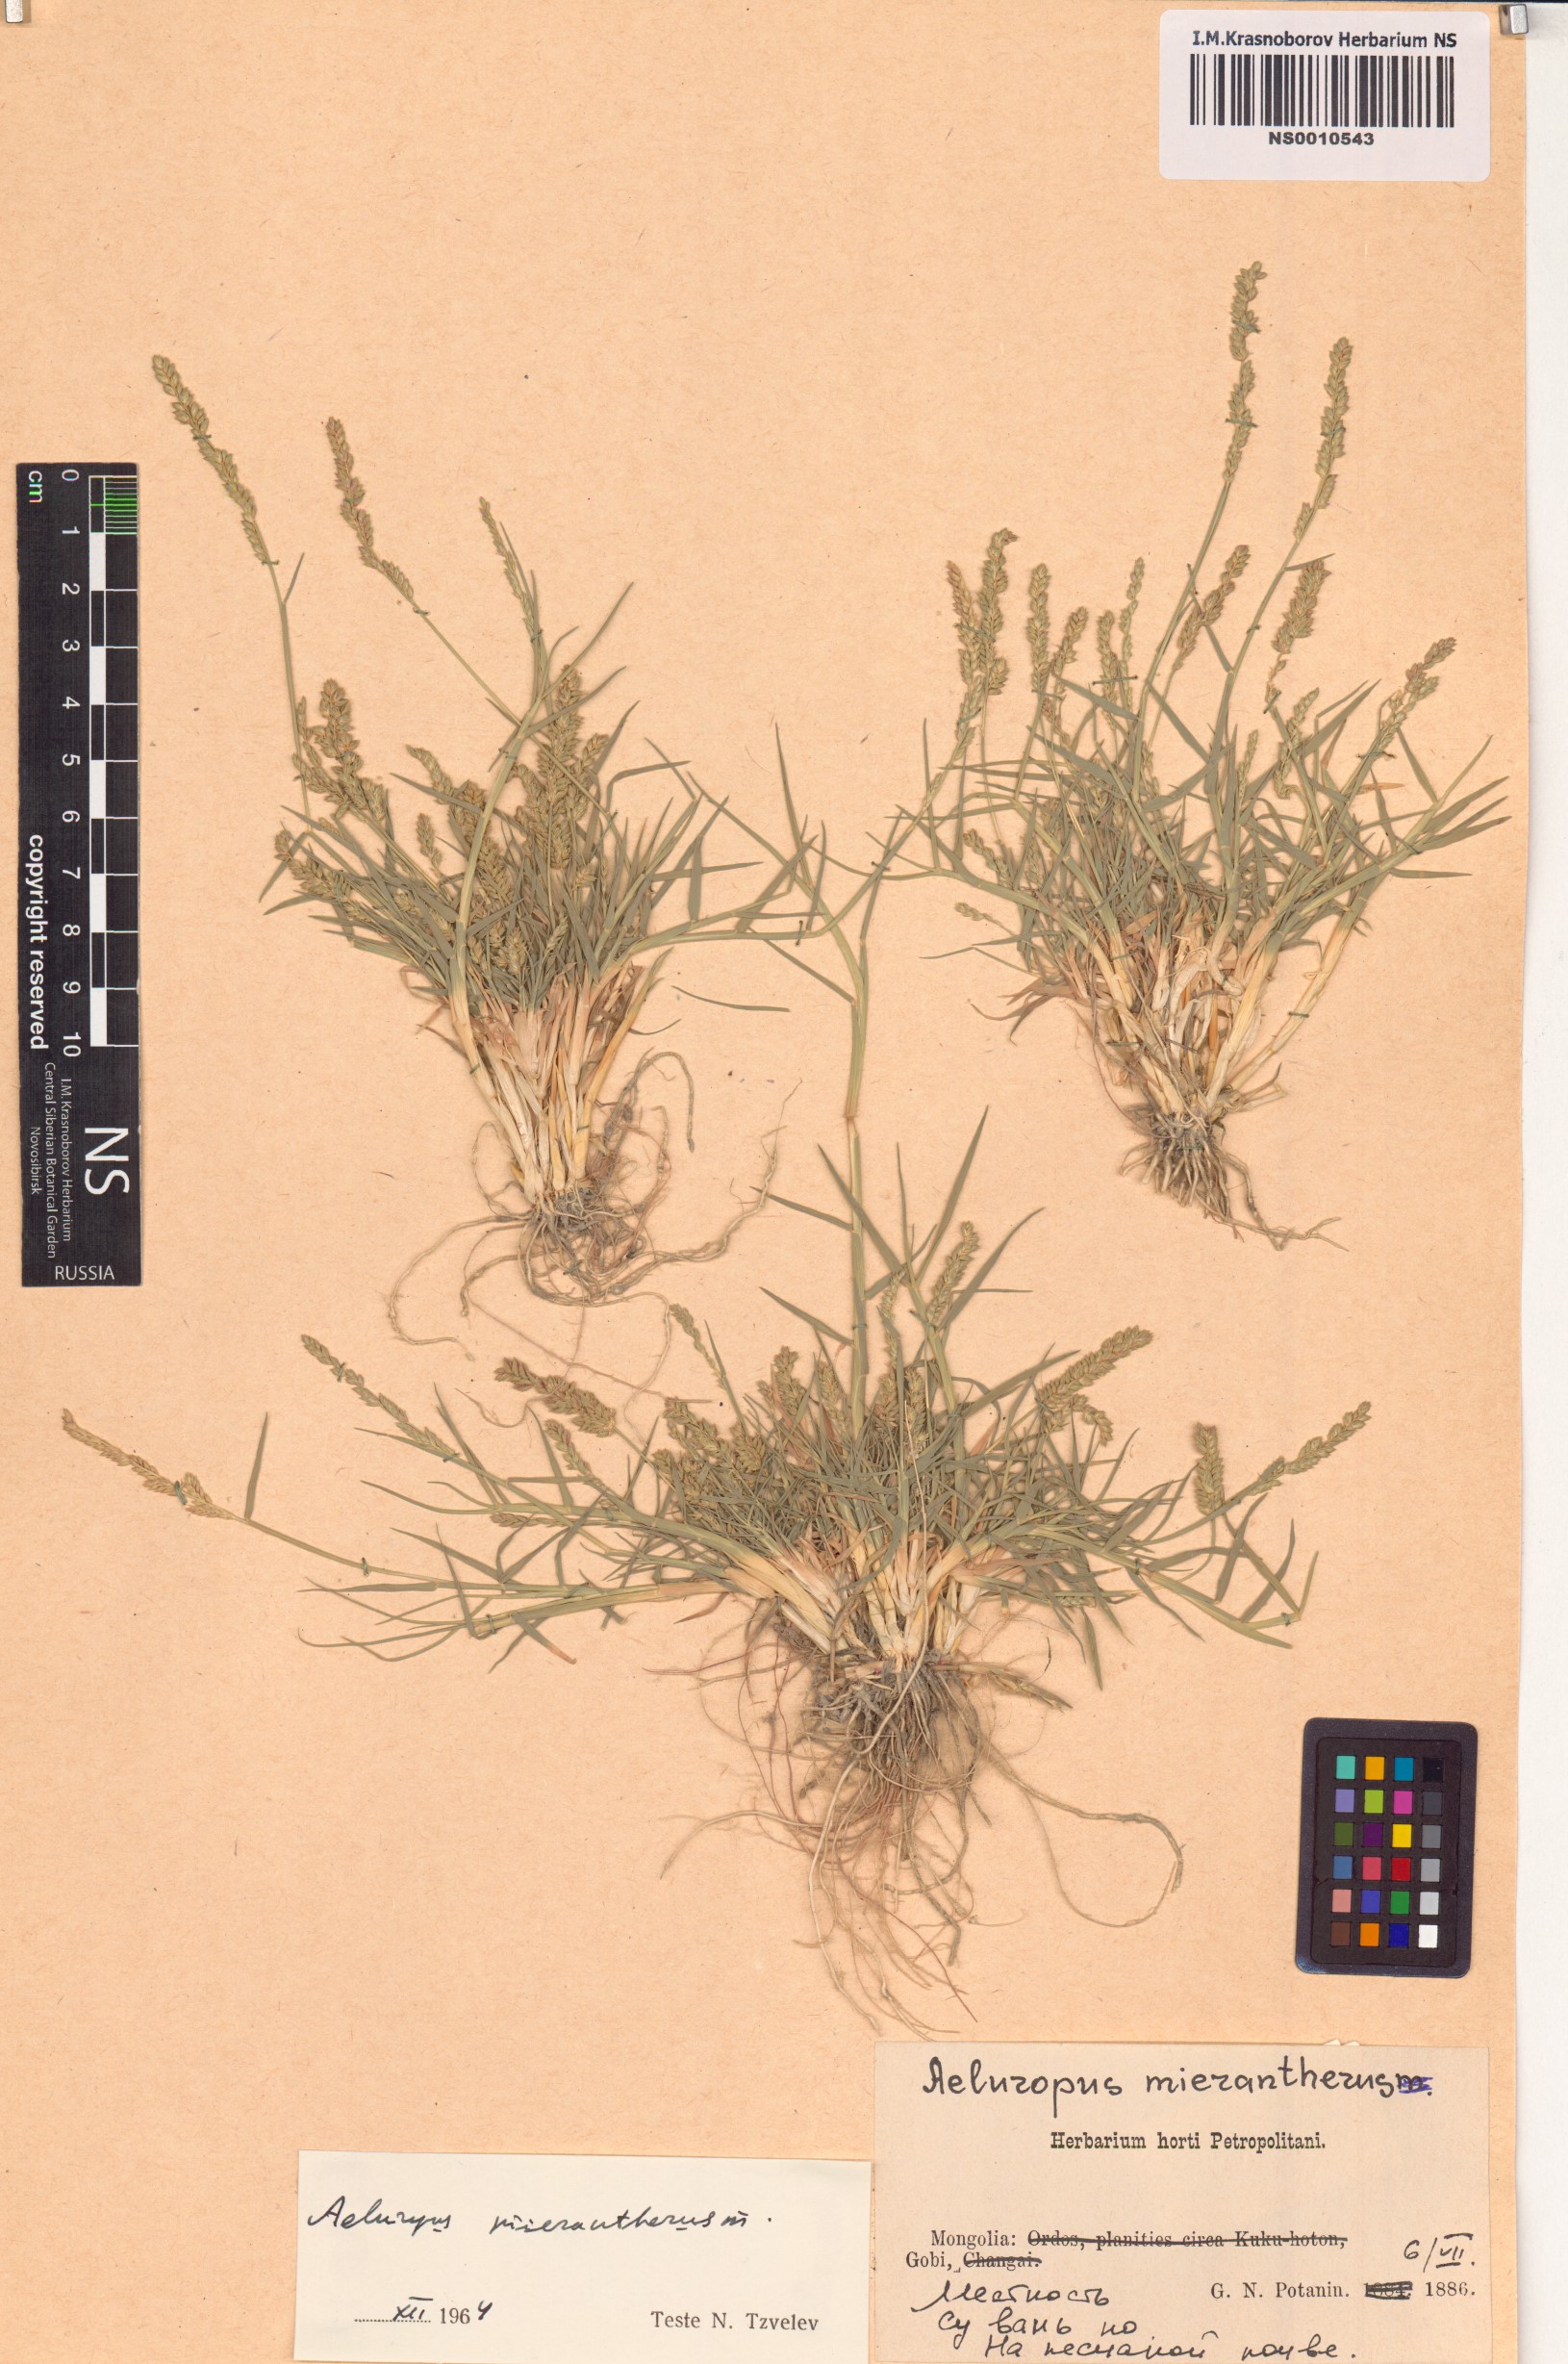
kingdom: Plantae
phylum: Tracheophyta
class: Liliopsida
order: Poales
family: Poaceae
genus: Aeluropus
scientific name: Aeluropus littoralis
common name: Indian walnut
